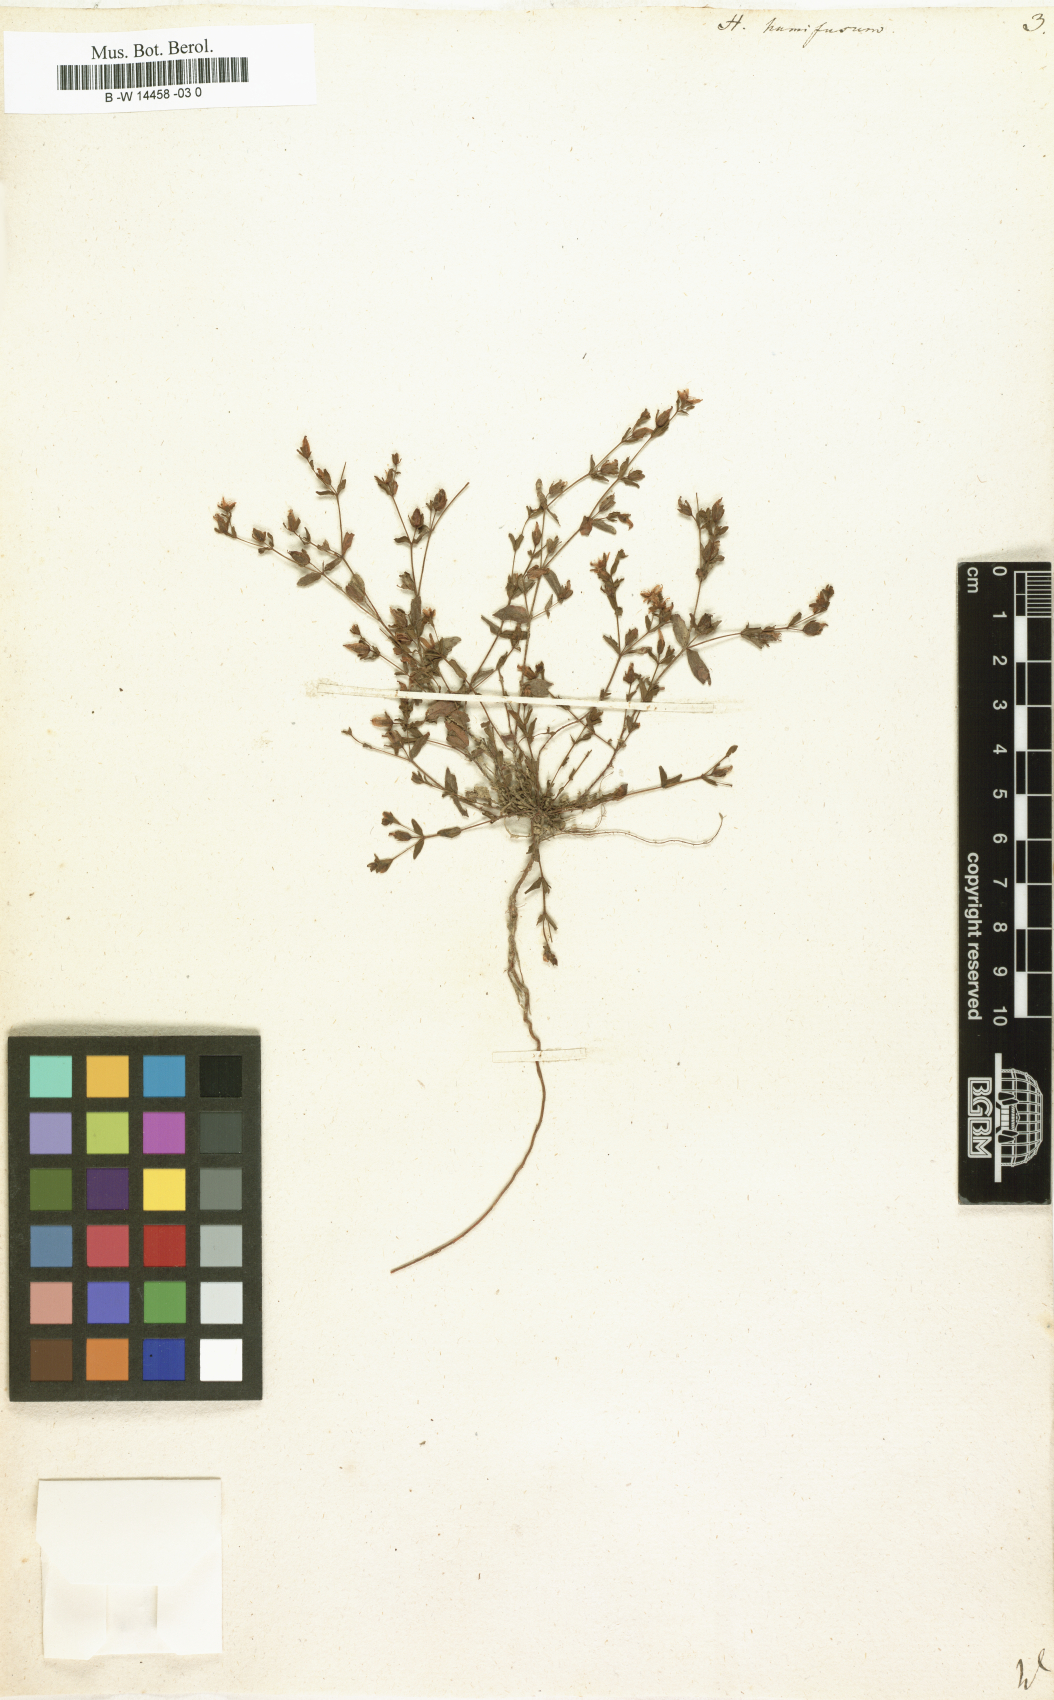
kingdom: Plantae
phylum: Tracheophyta
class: Magnoliopsida
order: Malpighiales
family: Hypericaceae
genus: Hypericum
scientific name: Hypericum humifusum
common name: Trailing st. john's-wort
